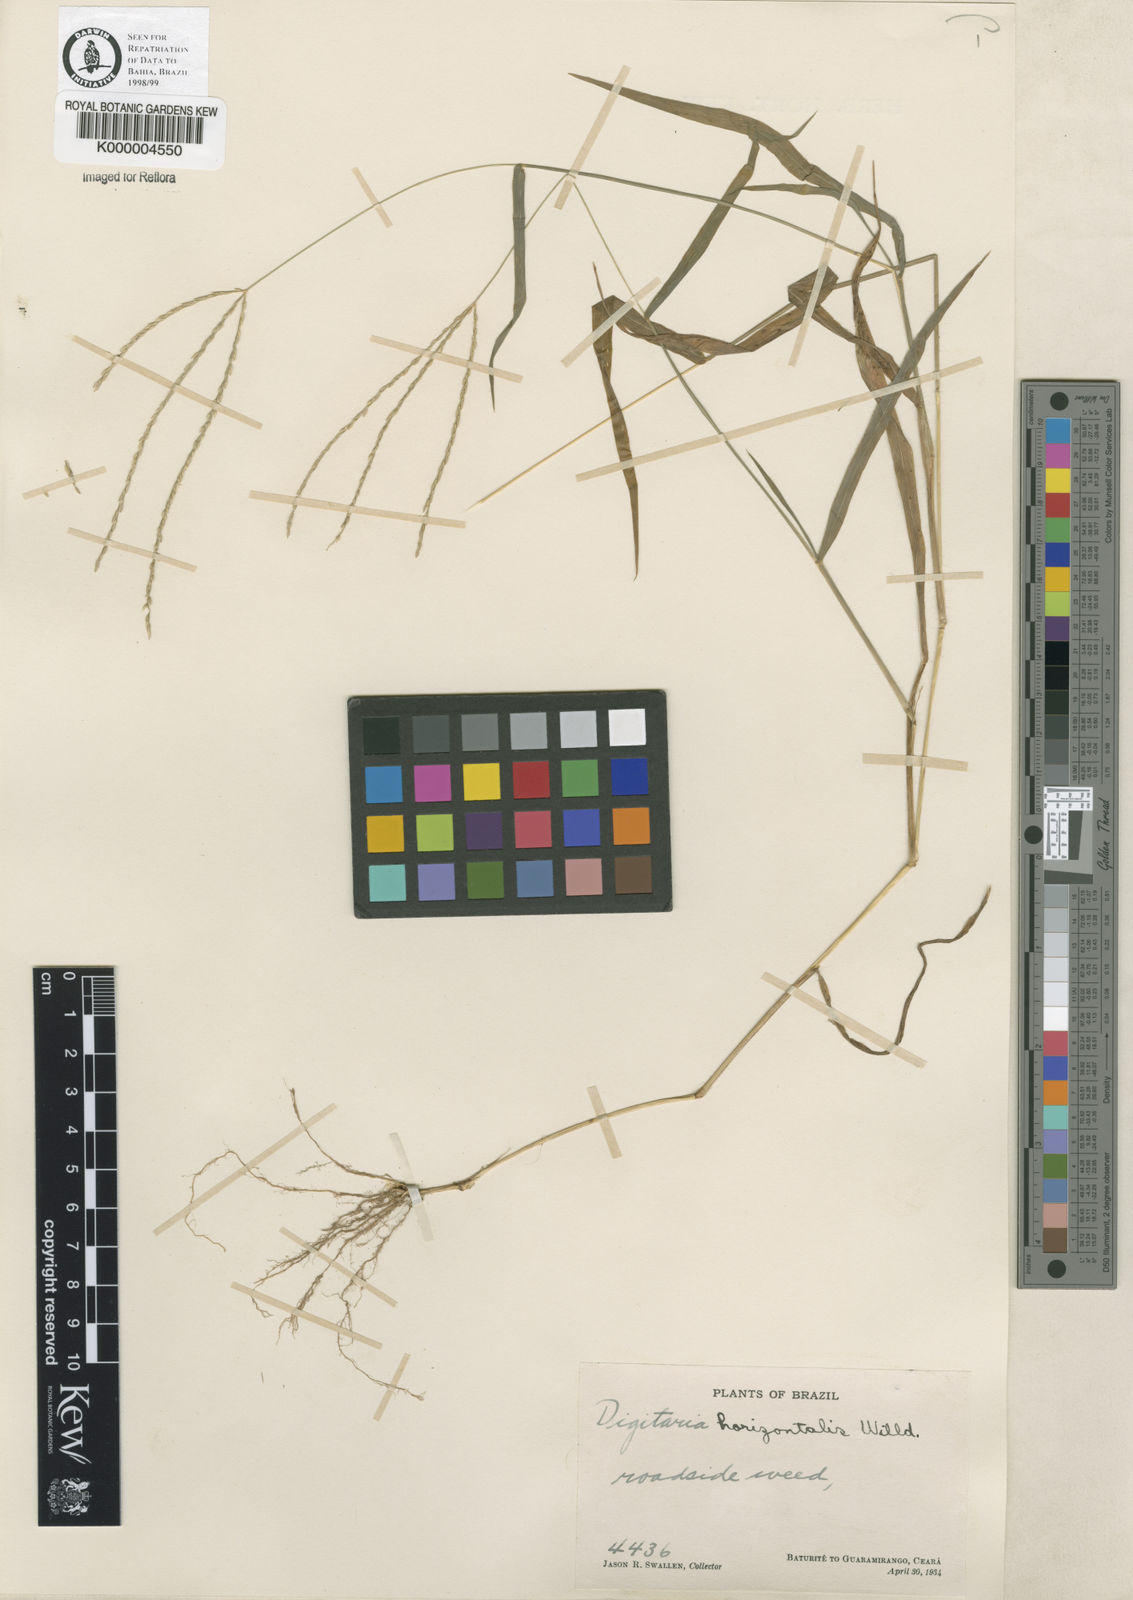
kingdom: Plantae
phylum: Tracheophyta
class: Liliopsida
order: Poales
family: Poaceae
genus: Digitaria
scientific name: Digitaria nuda
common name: Naked crabgrass
